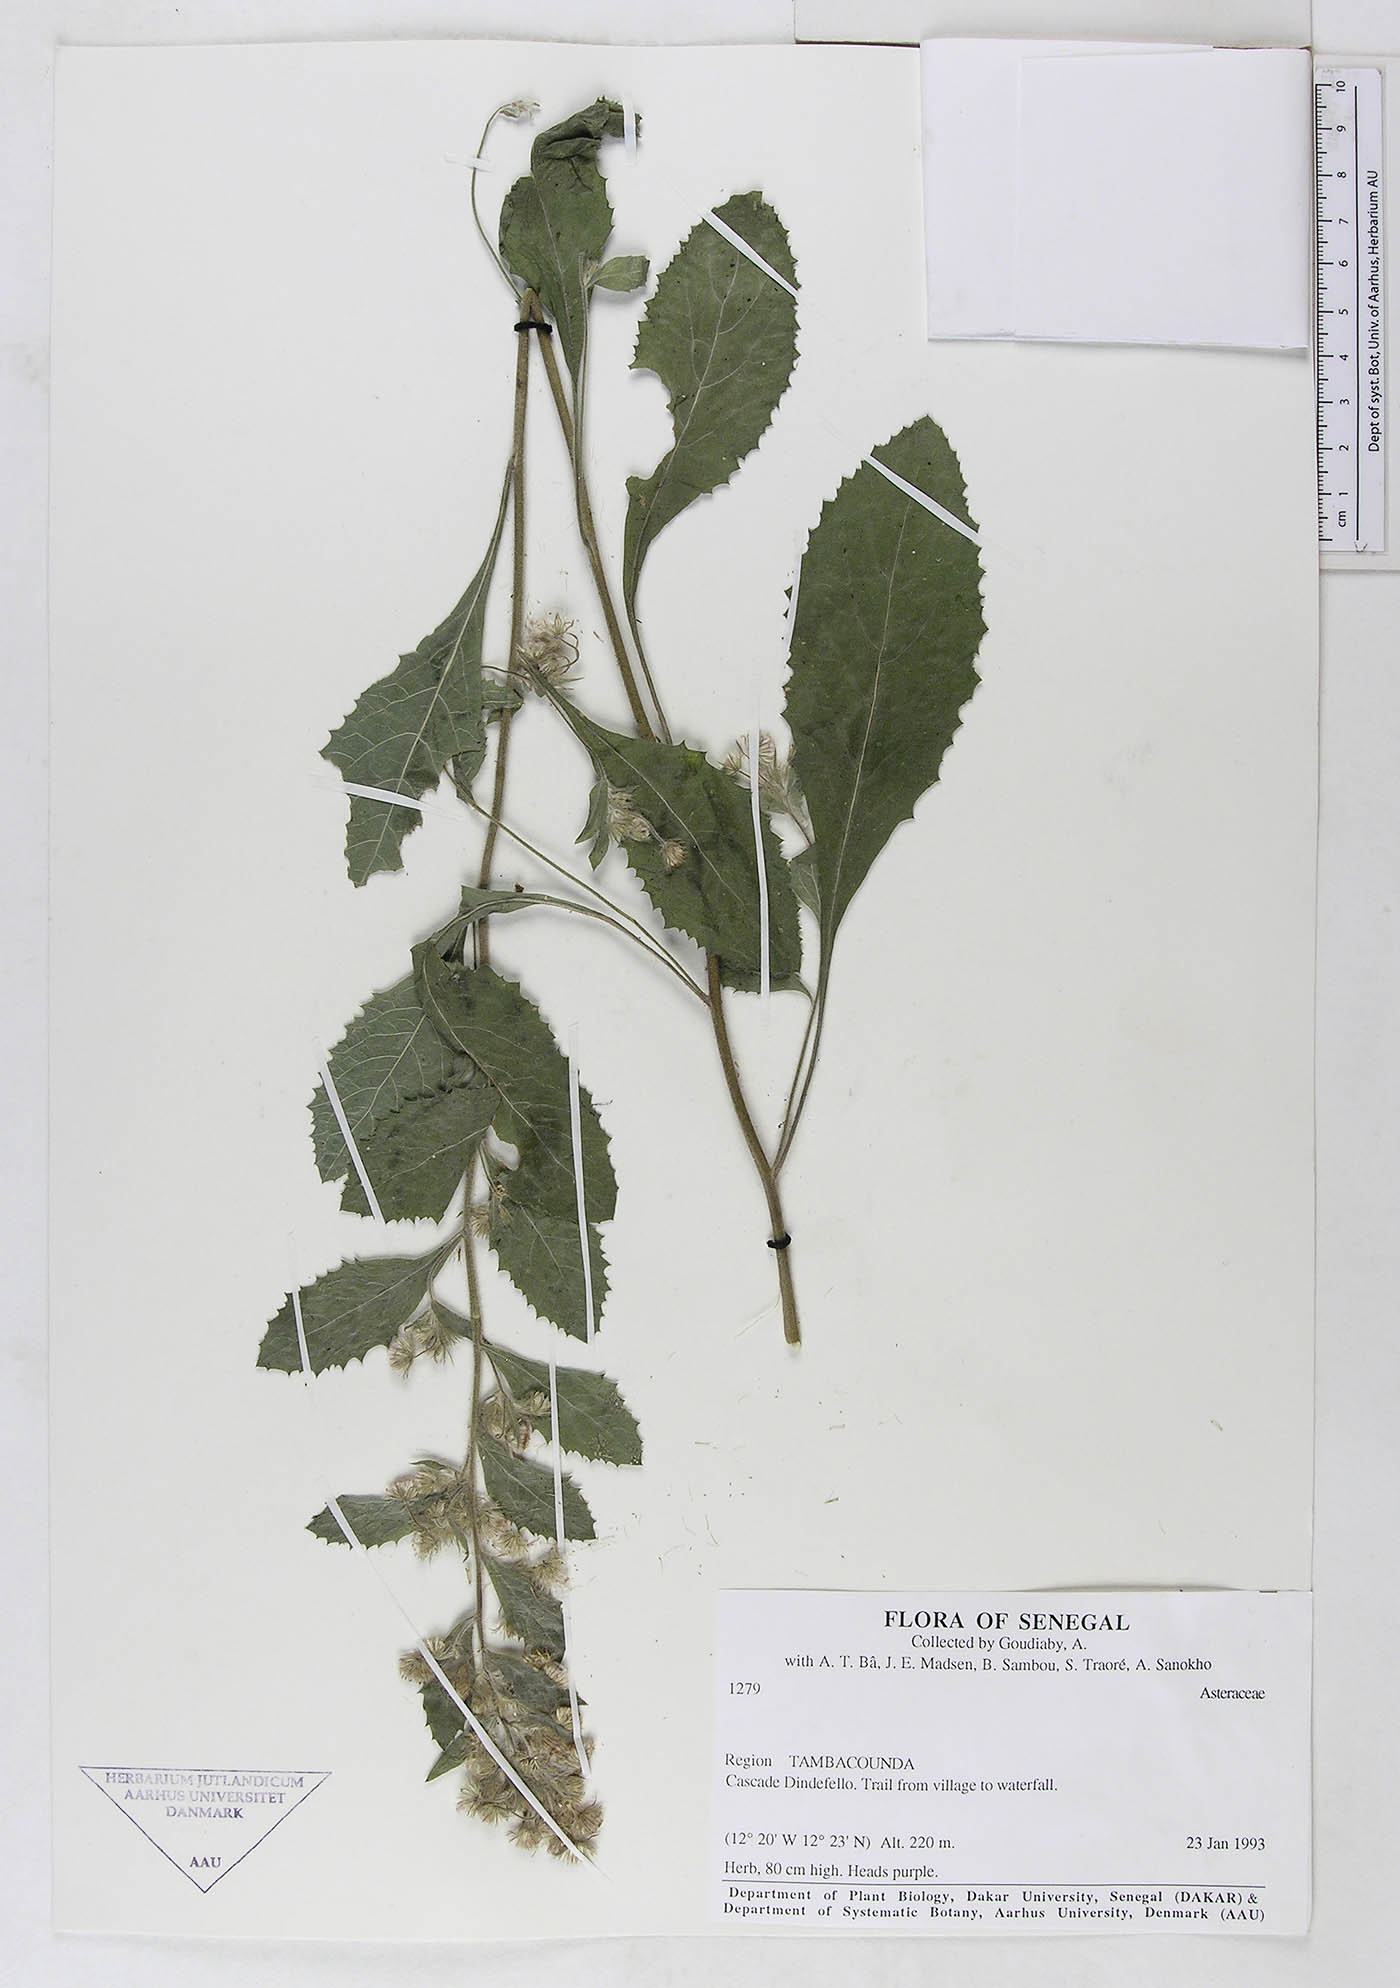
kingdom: Plantae
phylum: Tracheophyta
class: Magnoliopsida
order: Asterales
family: Asteraceae
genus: Blumea
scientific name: Blumea axillaris
